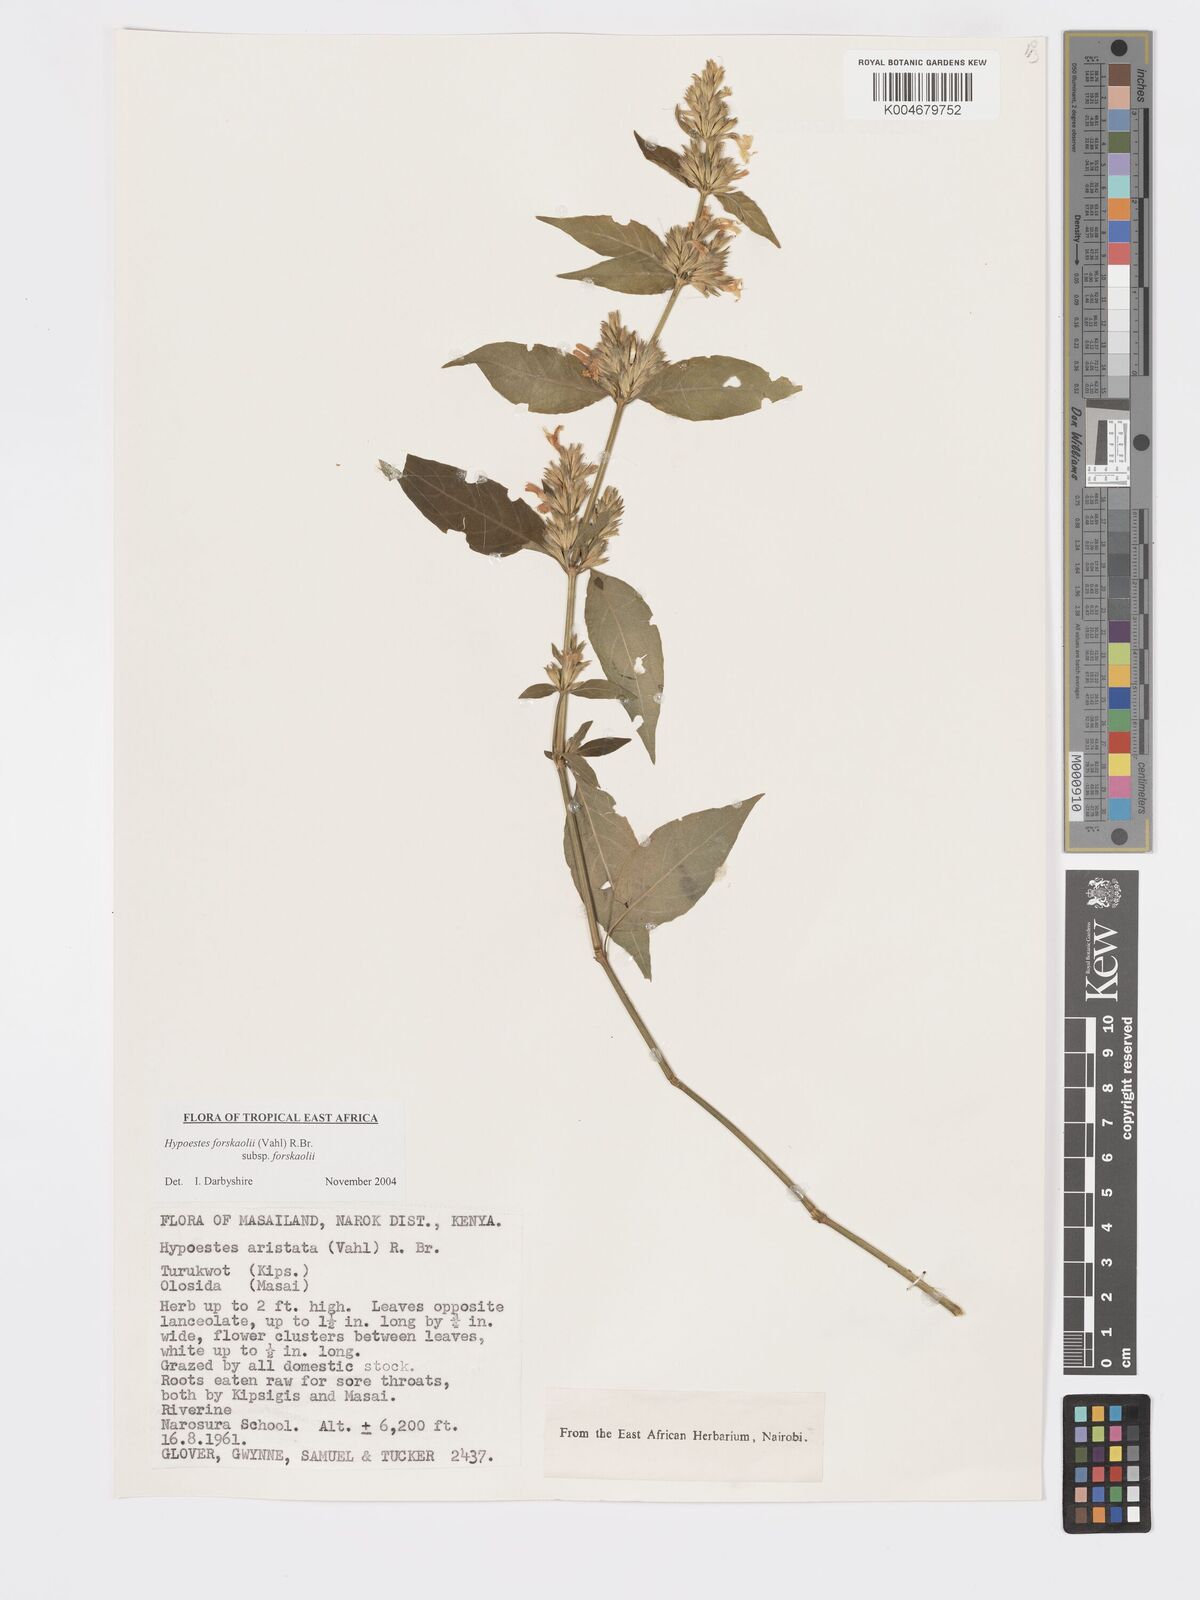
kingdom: Plantae
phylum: Tracheophyta
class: Magnoliopsida
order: Lamiales
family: Acanthaceae
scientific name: Acanthaceae
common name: Acanthaceae
